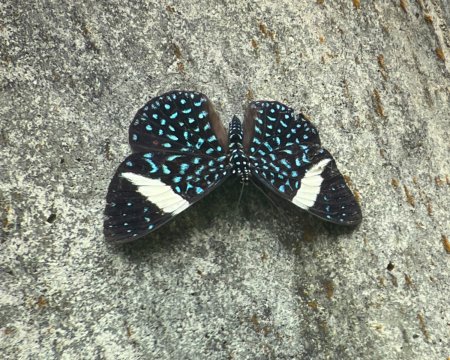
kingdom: Animalia
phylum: Arthropoda
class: Insecta
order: Lepidoptera
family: Nymphalidae
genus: Hamadryas
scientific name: Hamadryas laodamia
